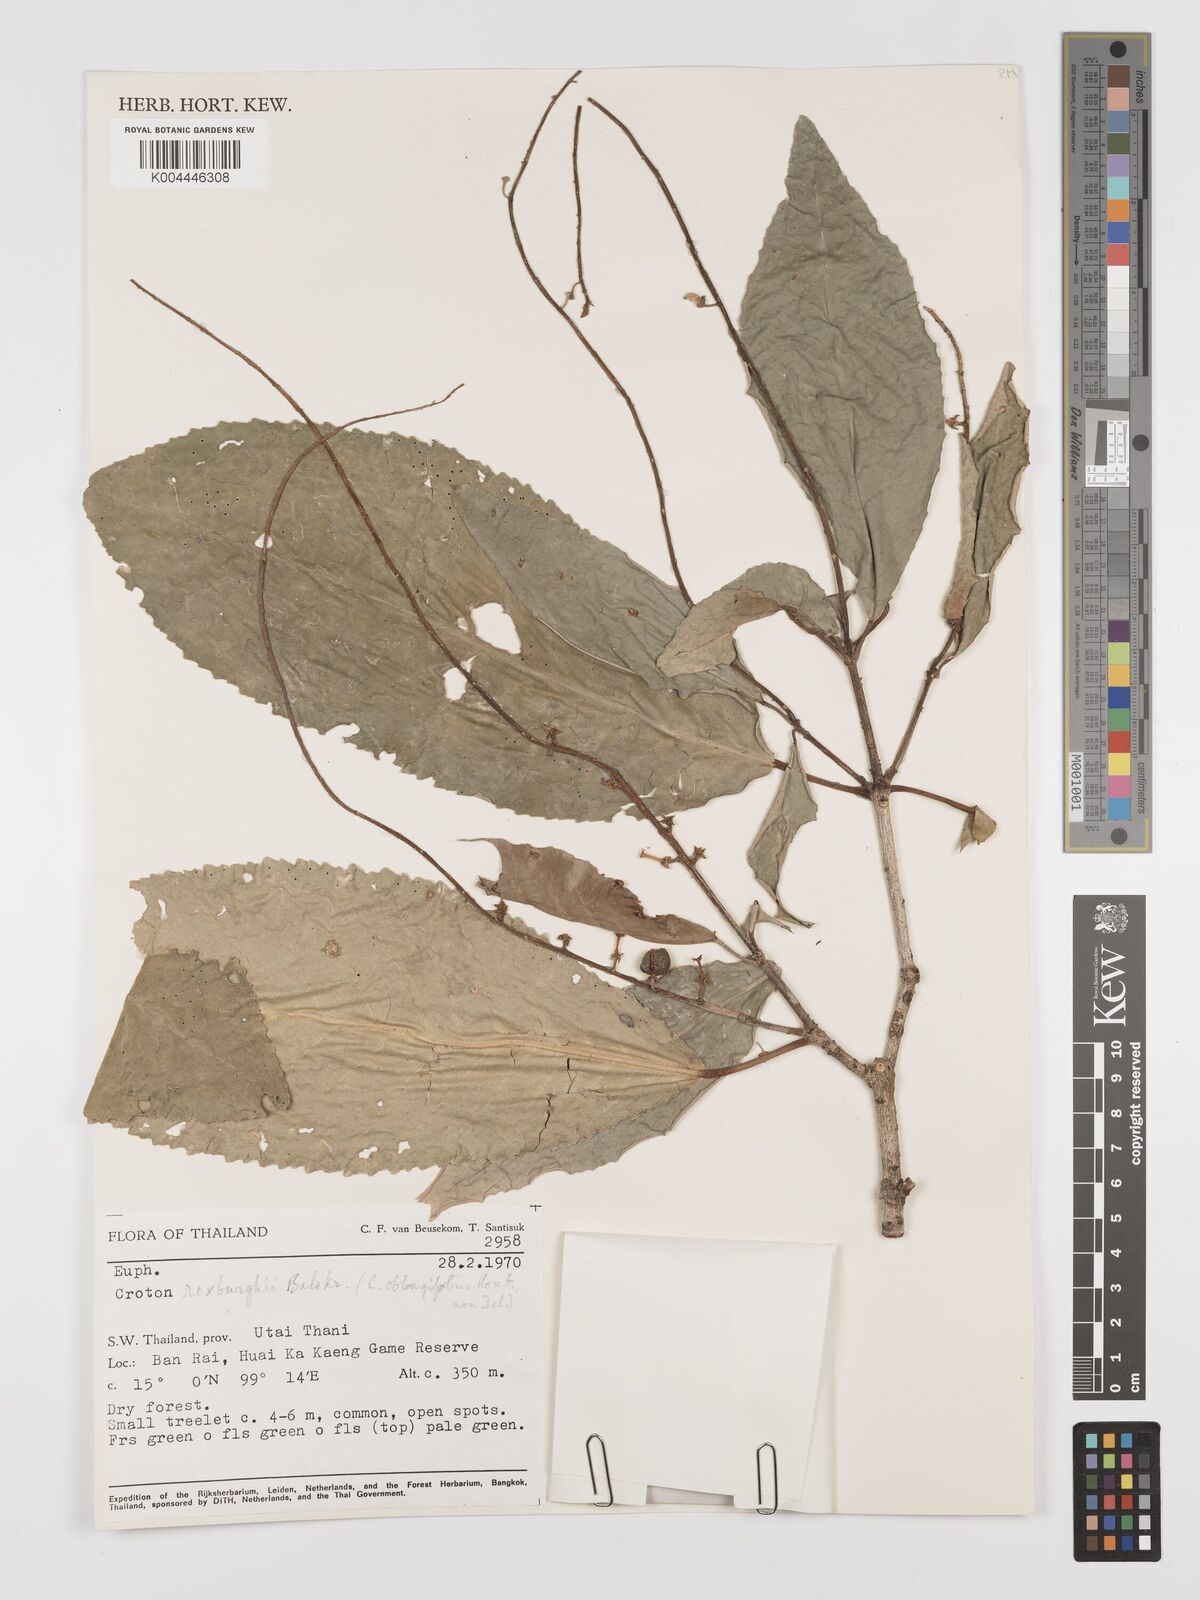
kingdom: Plantae
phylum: Tracheophyta
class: Magnoliopsida
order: Malpighiales
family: Euphorbiaceae
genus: Croton
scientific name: Croton
